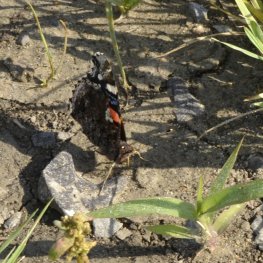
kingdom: Animalia
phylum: Arthropoda
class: Insecta
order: Lepidoptera
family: Nymphalidae
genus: Vanessa
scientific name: Vanessa atalanta
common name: Red Admiral
